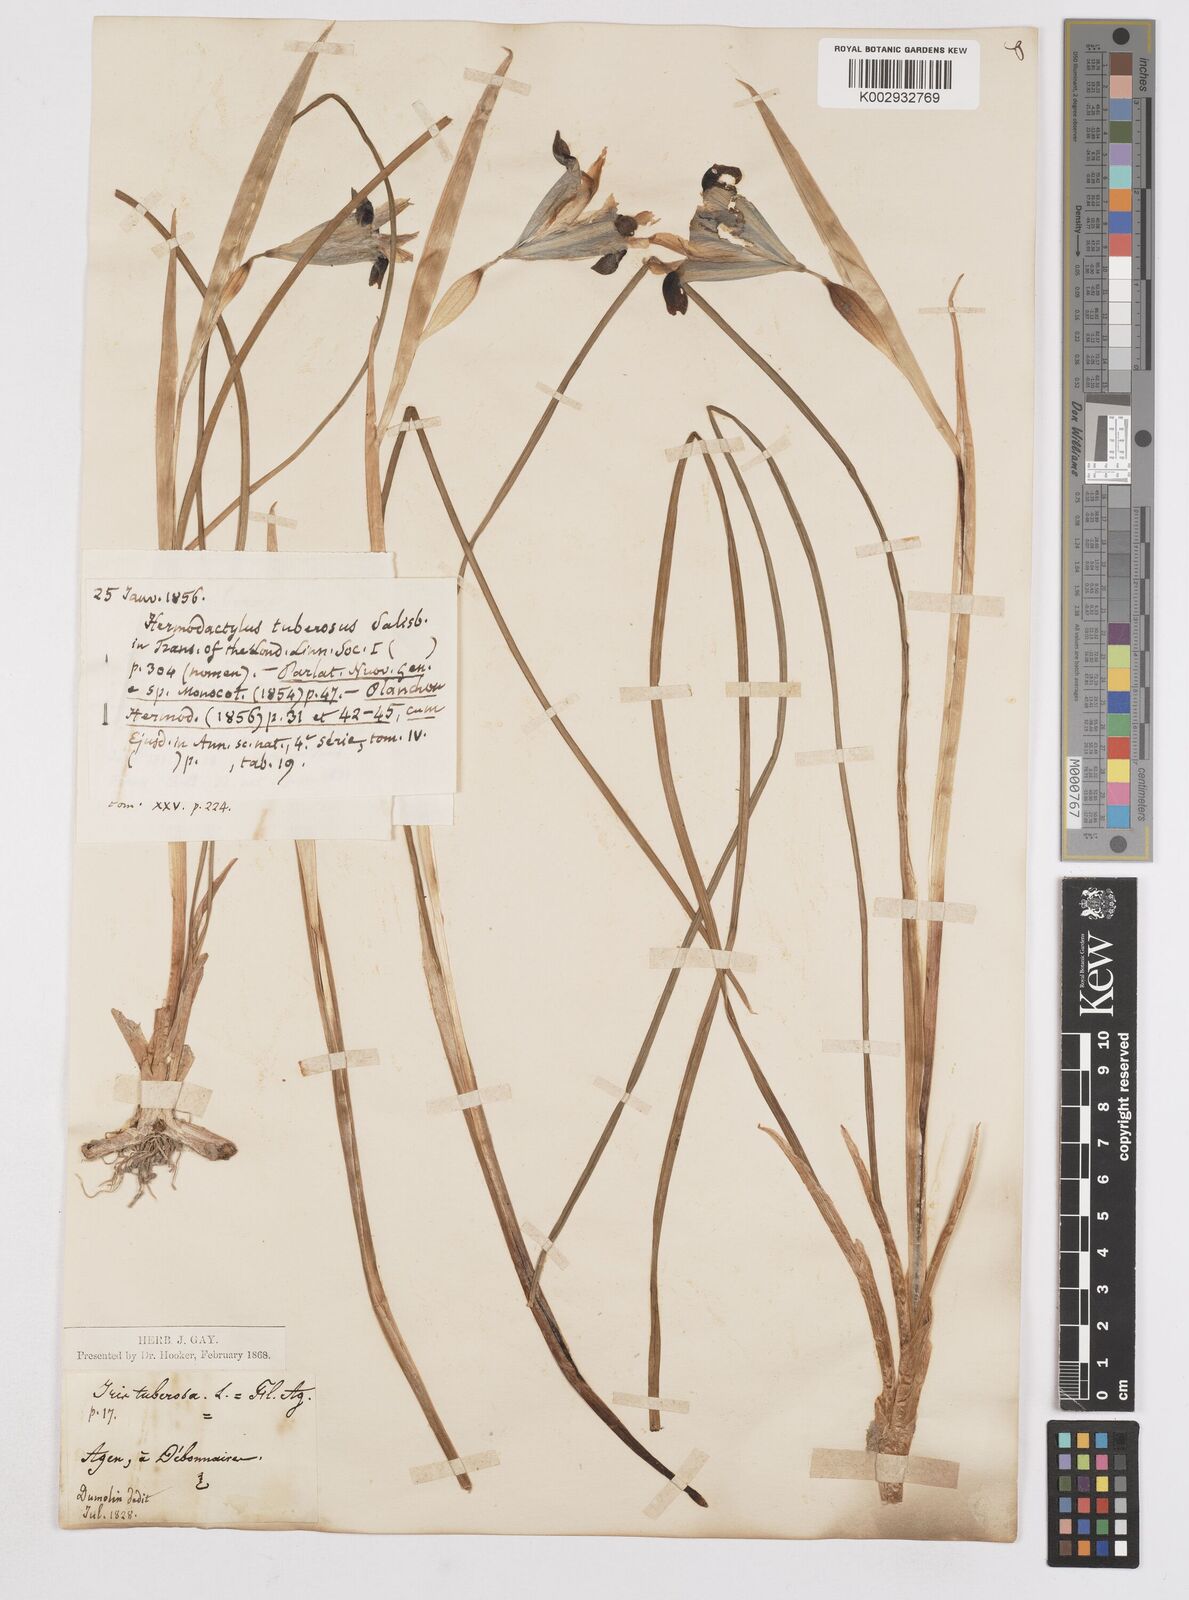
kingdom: Plantae
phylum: Tracheophyta
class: Liliopsida
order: Asparagales
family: Iridaceae
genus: Iris
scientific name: Iris tuberosa
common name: Snake's-head iris
